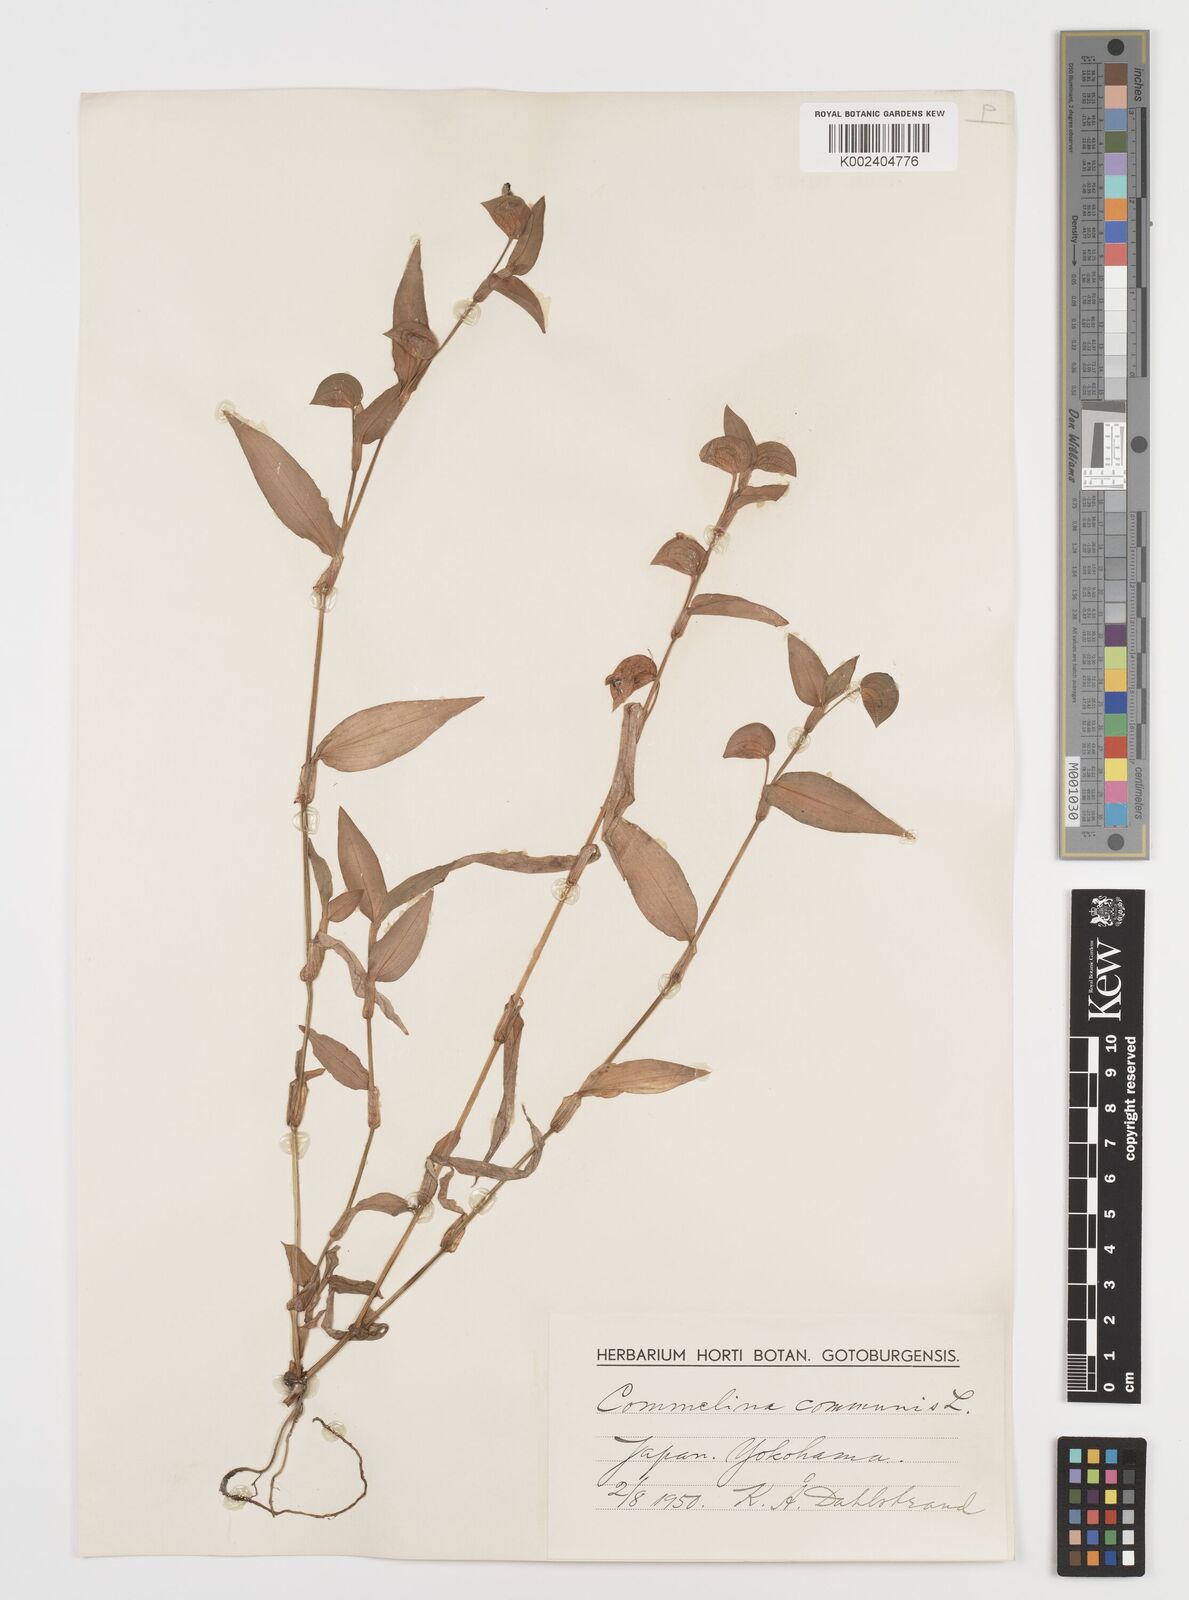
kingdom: Plantae
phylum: Tracheophyta
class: Liliopsida
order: Commelinales
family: Commelinaceae
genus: Commelina
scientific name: Commelina communis
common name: Asiatic dayflower
